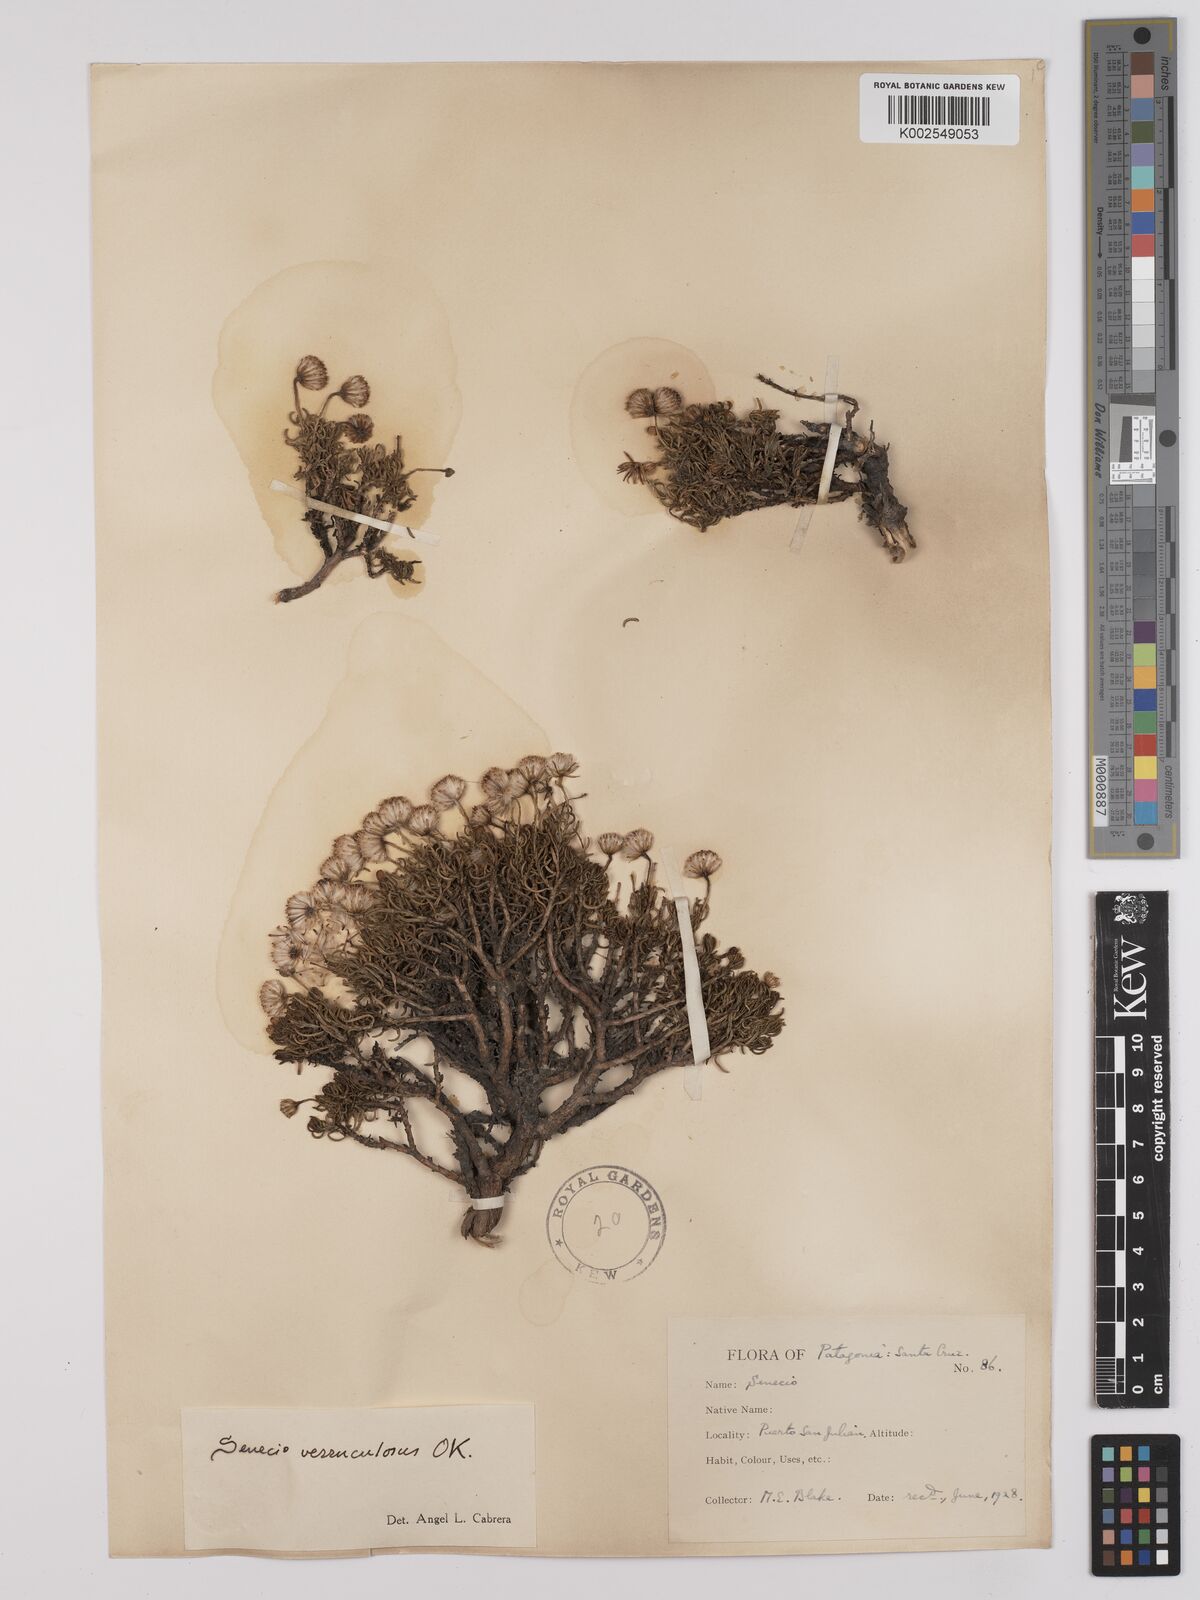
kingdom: Plantae
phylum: Tracheophyta
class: Magnoliopsida
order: Asterales
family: Asteraceae
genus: Senecio
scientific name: Senecio miser
